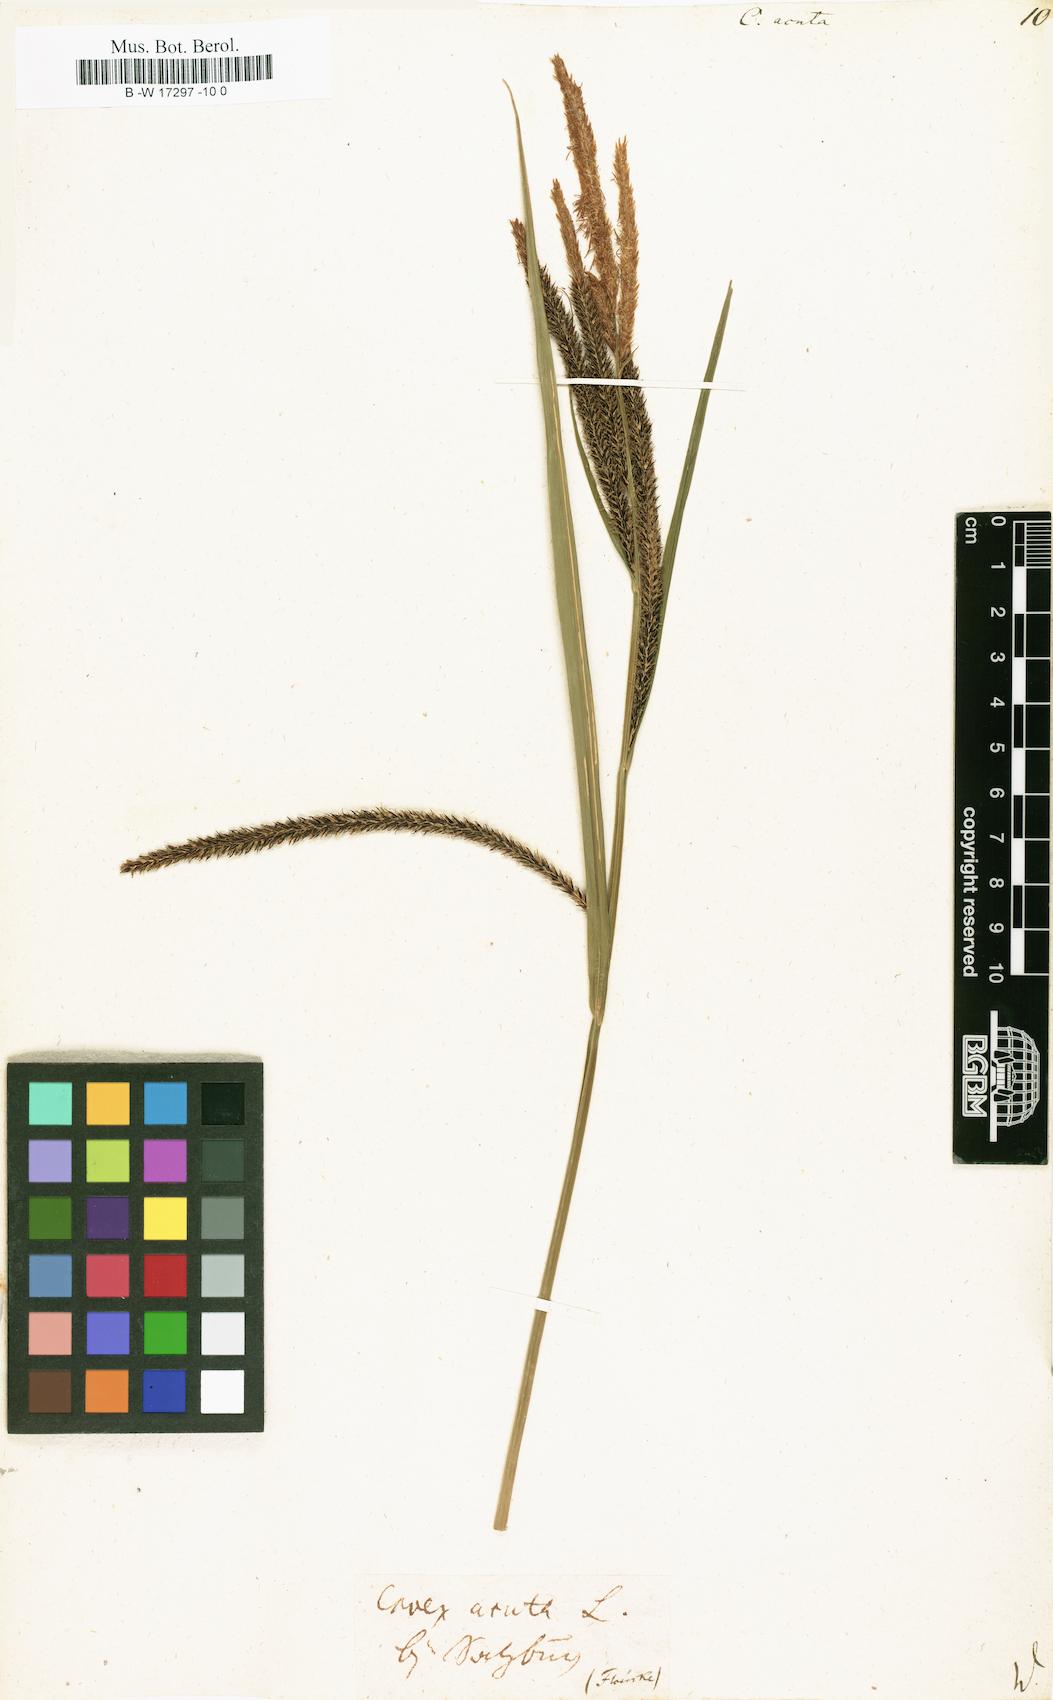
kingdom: Plantae
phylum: Tracheophyta
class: Liliopsida
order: Poales
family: Cyperaceae
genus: Carex
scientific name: Carex acuta
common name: Slender tufted-sedge
